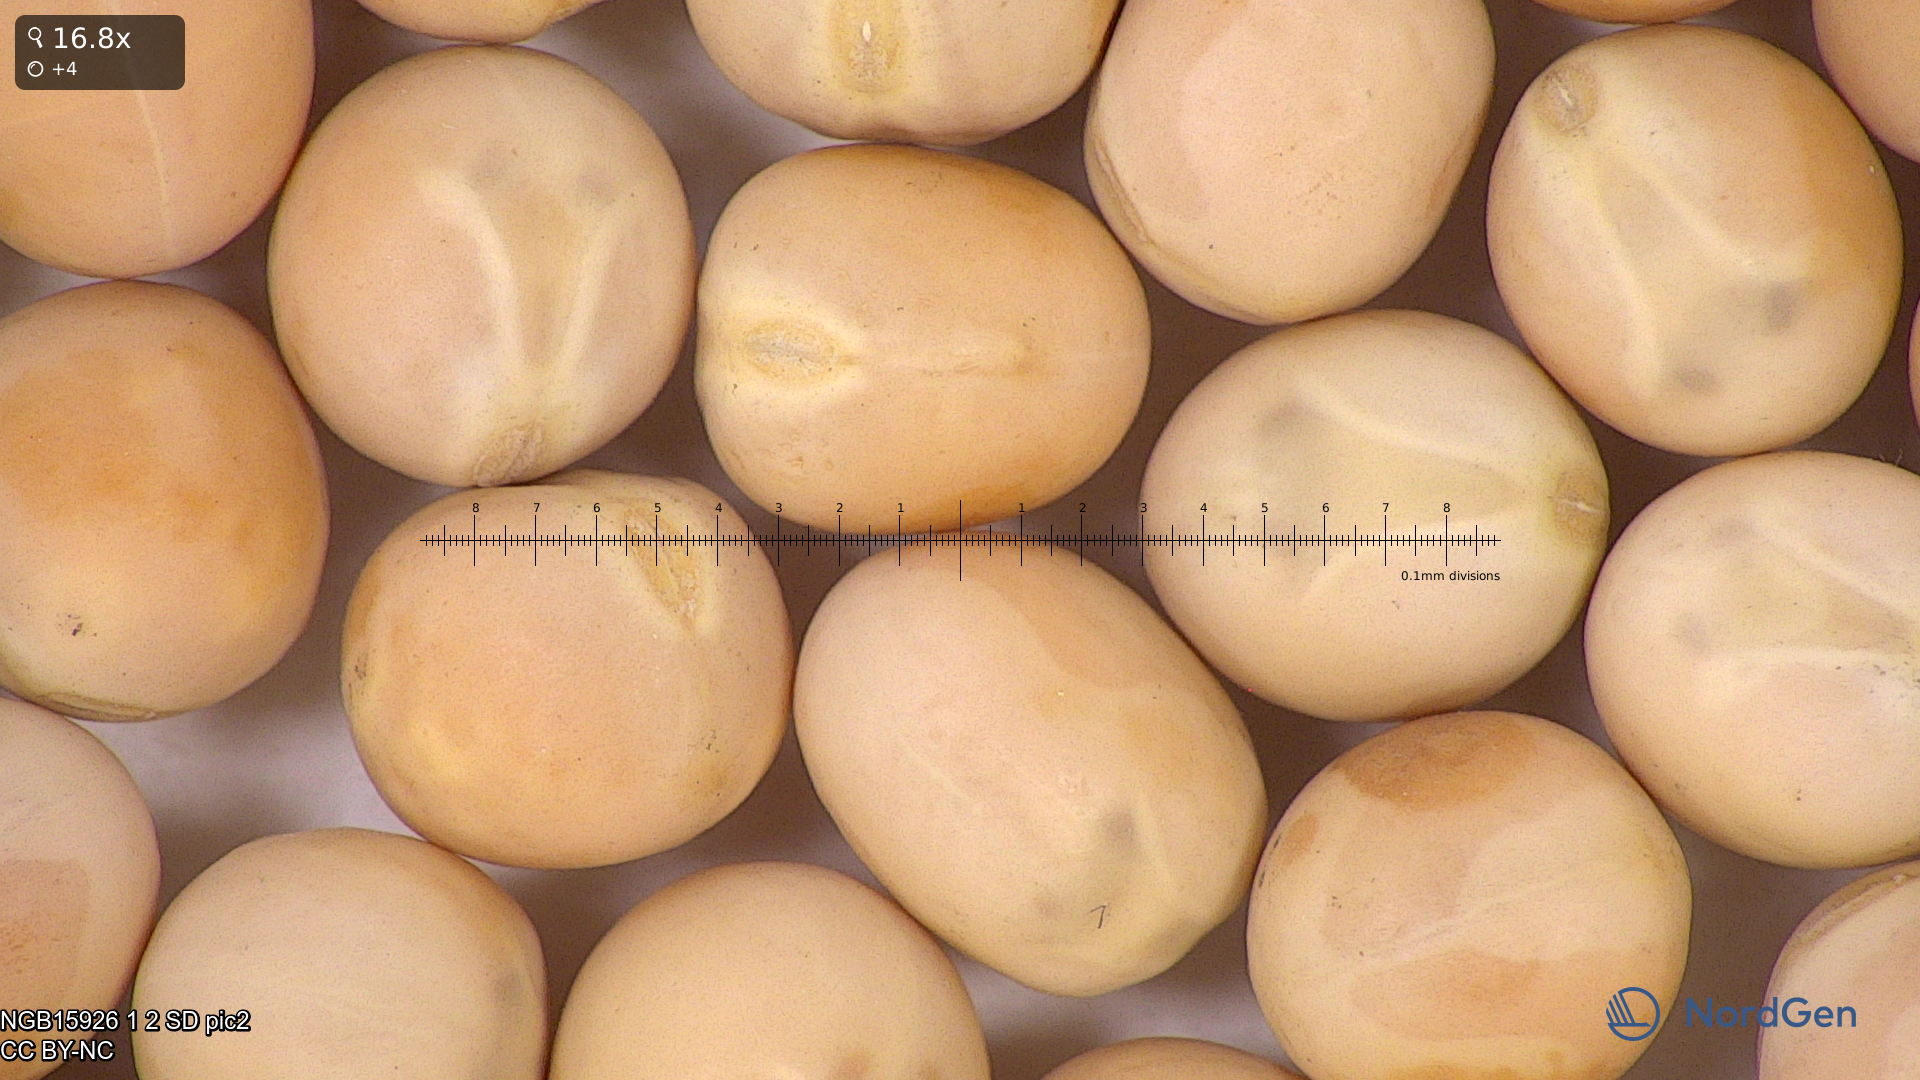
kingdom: Plantae
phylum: Tracheophyta
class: Magnoliopsida
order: Fabales
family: Fabaceae
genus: Lathyrus
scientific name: Lathyrus oleraceus
